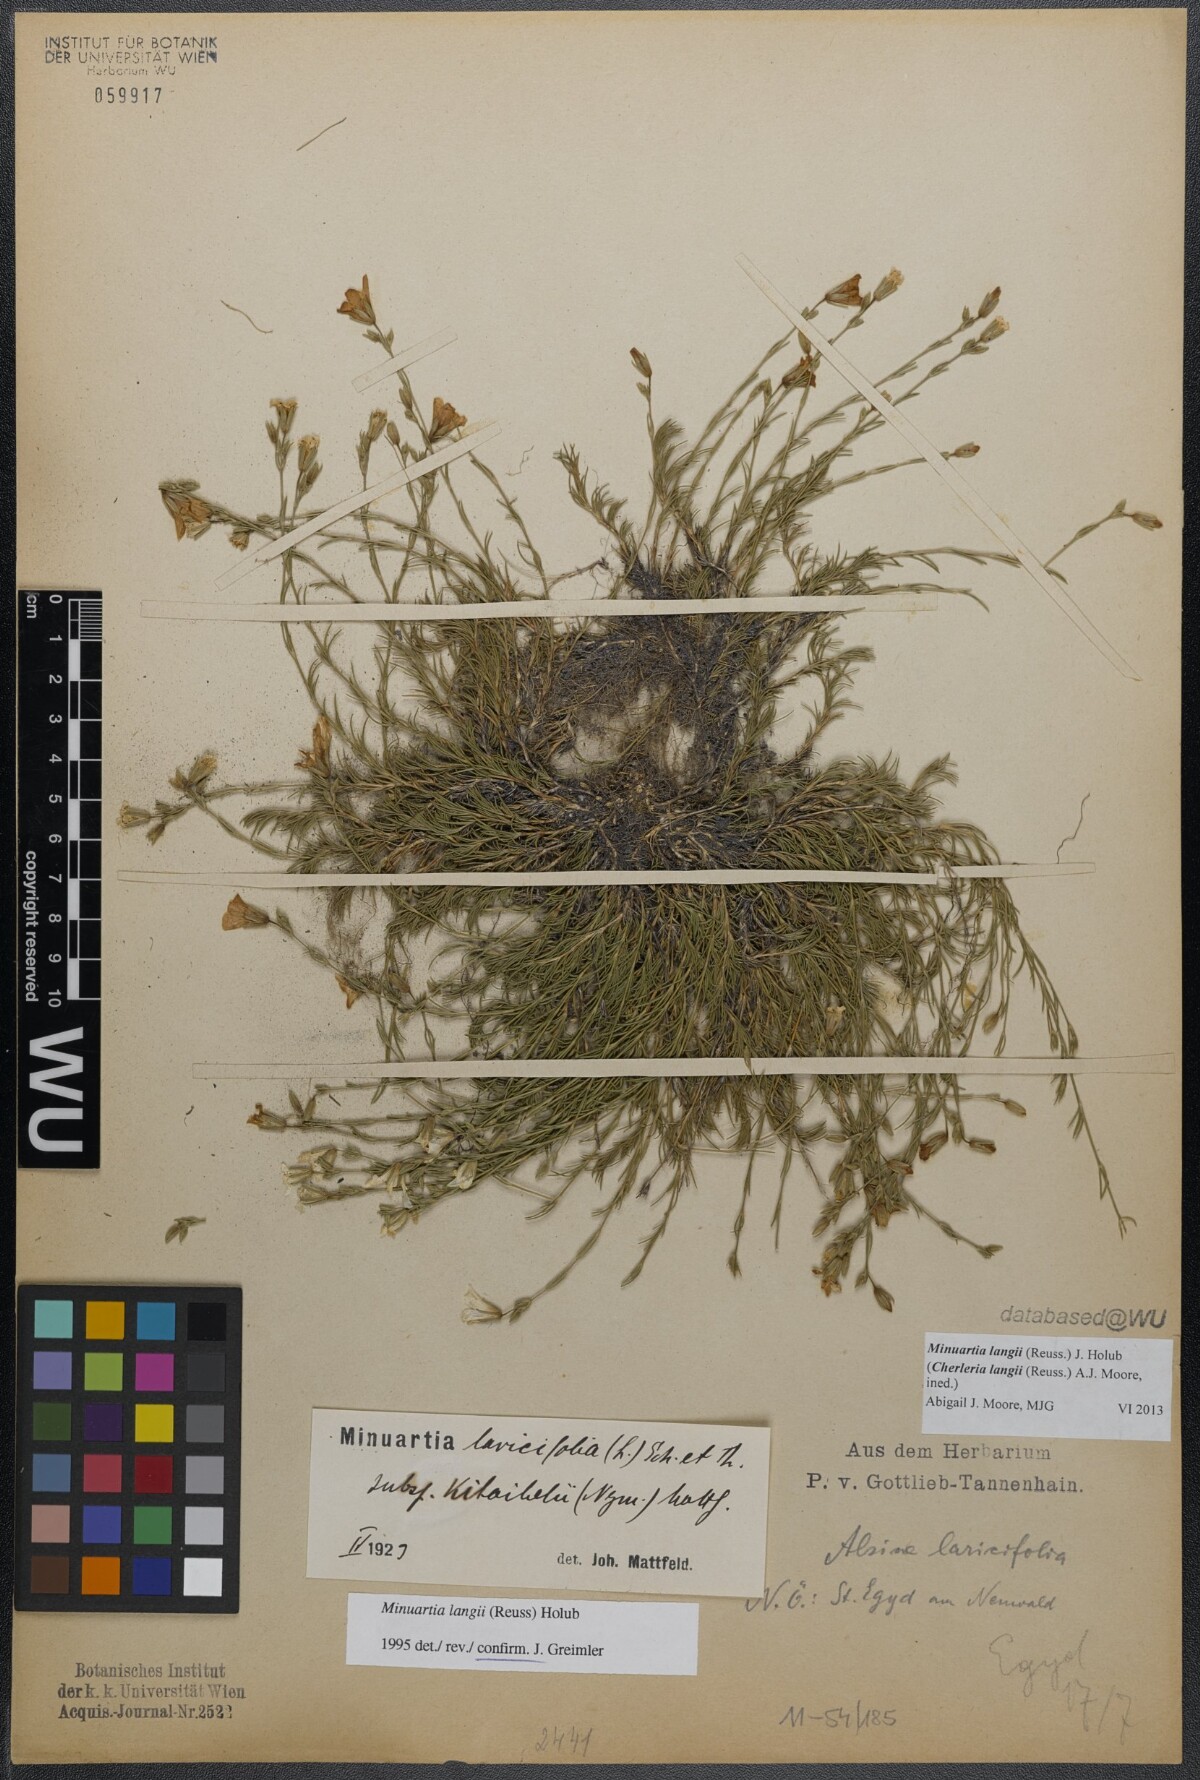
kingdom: Plantae
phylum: Tracheophyta
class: Magnoliopsida
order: Caryophyllales
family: Caryophyllaceae
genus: Cherleria
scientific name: Cherleria langii
